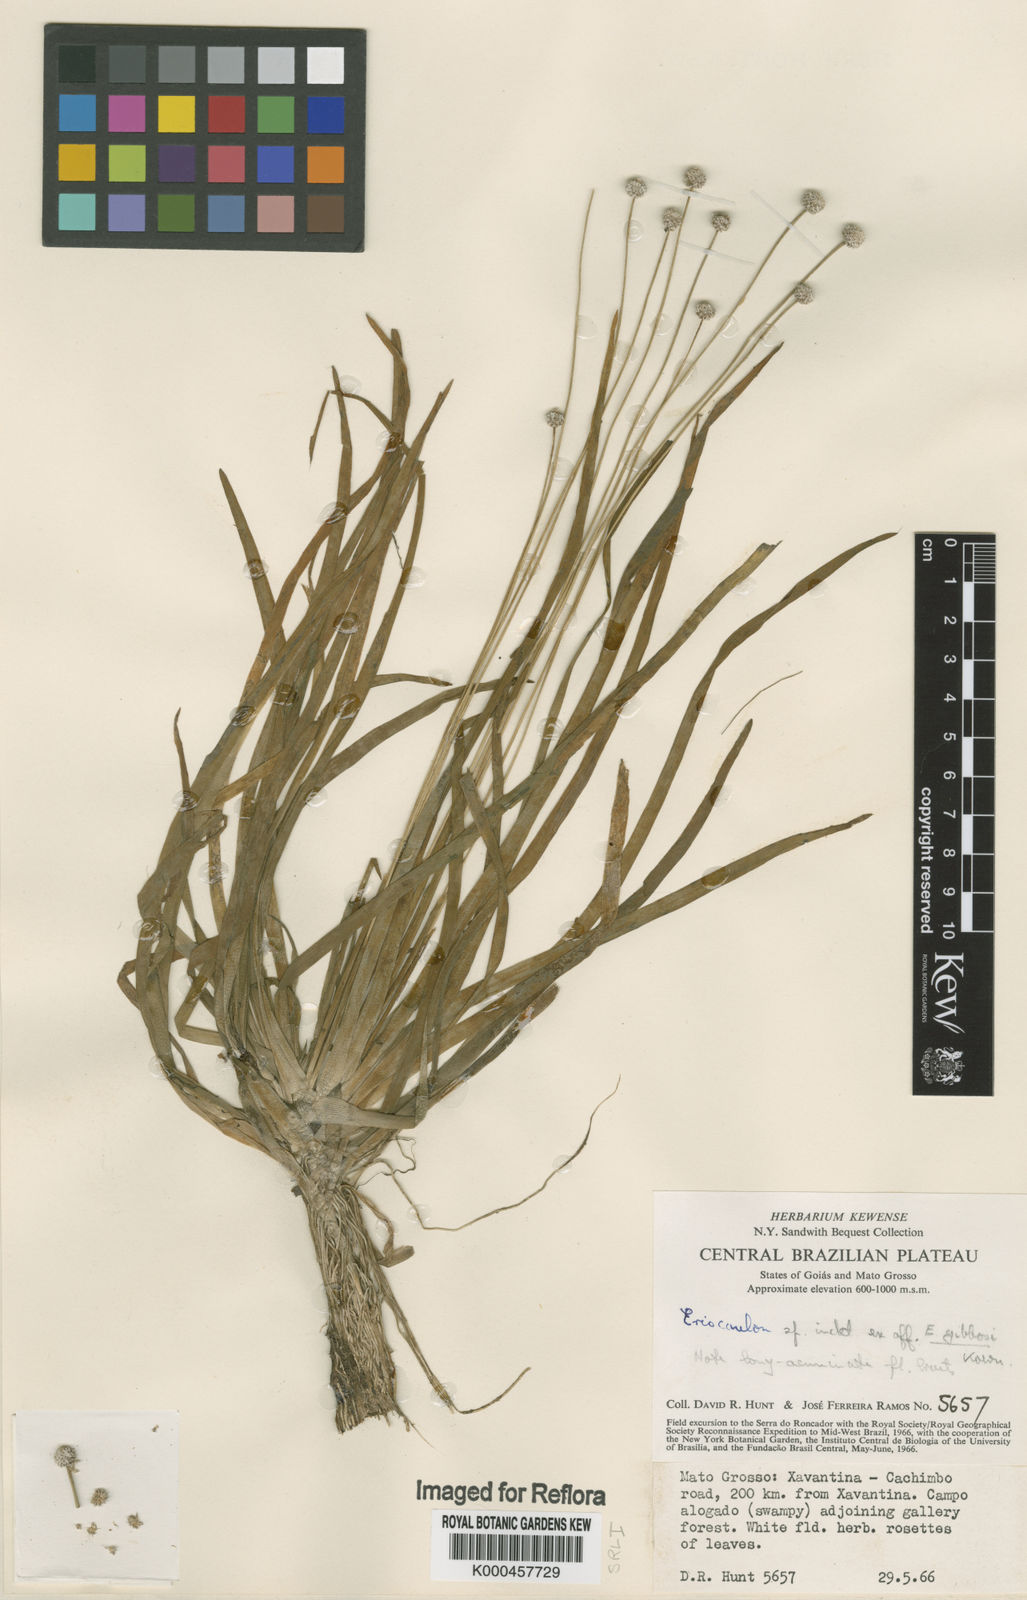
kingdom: Plantae
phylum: Tracheophyta
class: Liliopsida
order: Poales
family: Eriocaulaceae
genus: Eriocaulon
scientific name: Eriocaulon
